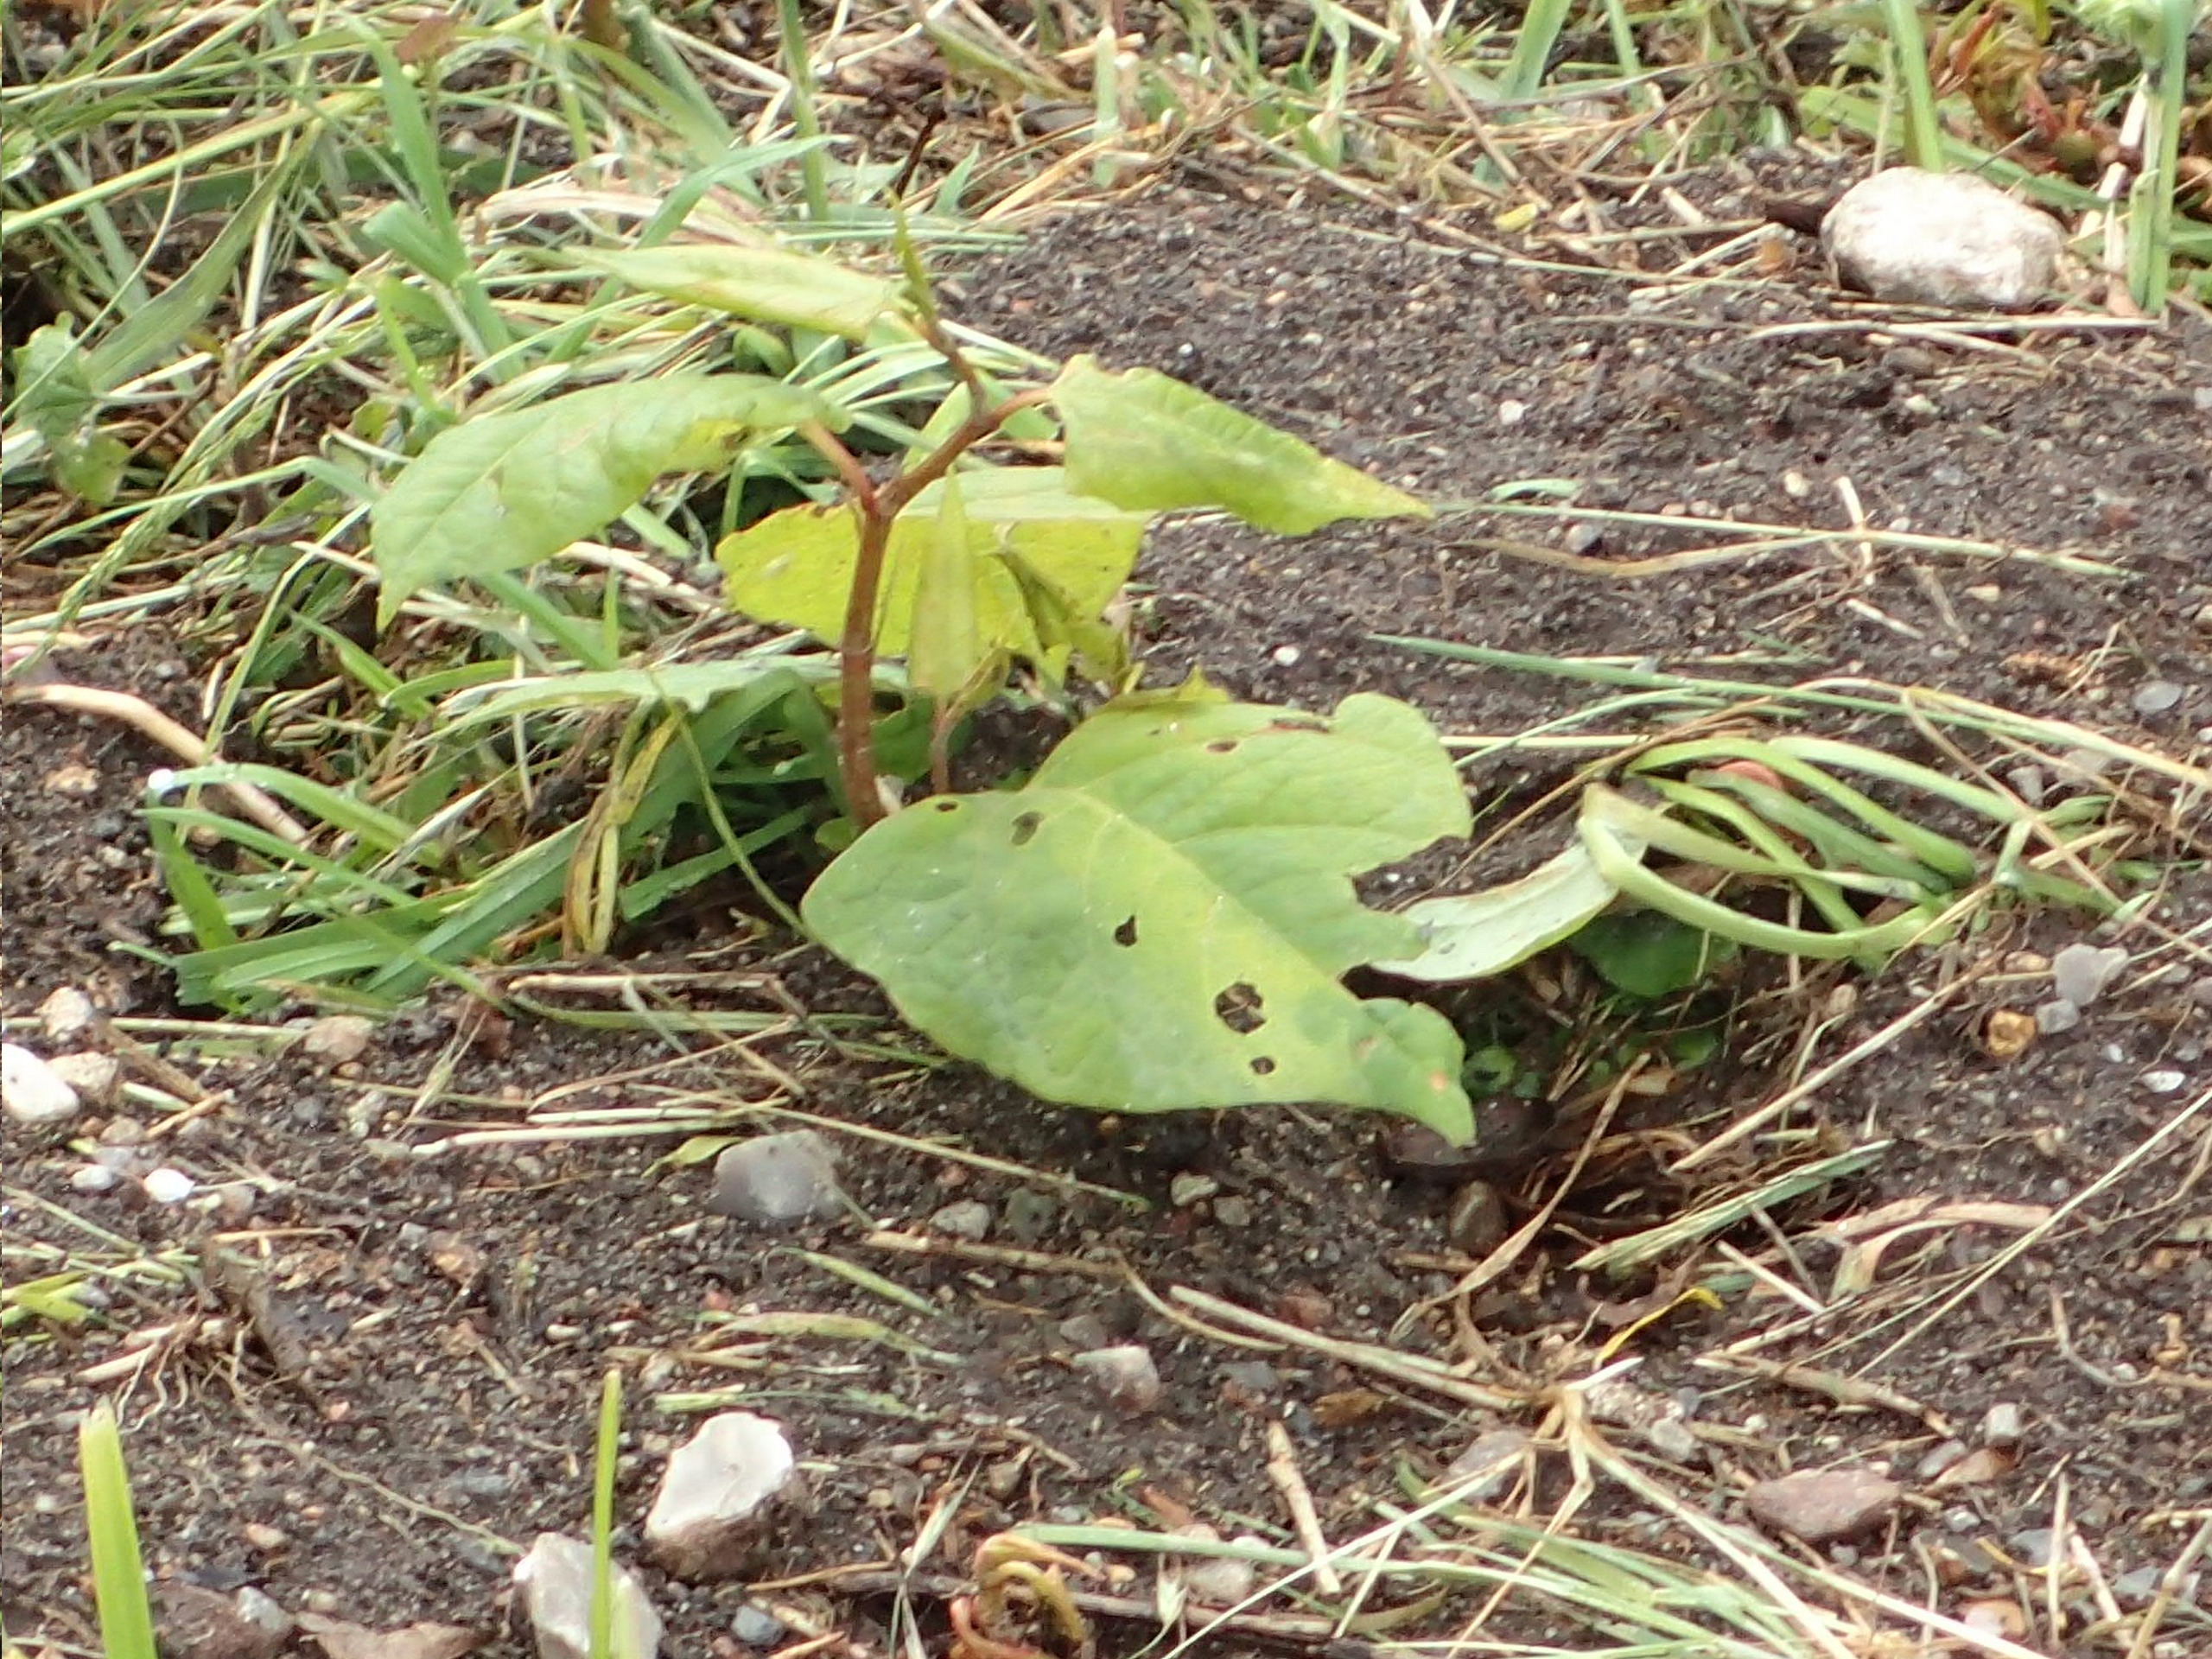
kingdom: Plantae
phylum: Tracheophyta
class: Magnoliopsida
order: Caryophyllales
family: Polygonaceae
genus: Reynoutria
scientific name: Reynoutria
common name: Pileurt (Reynoutria-slægten)
